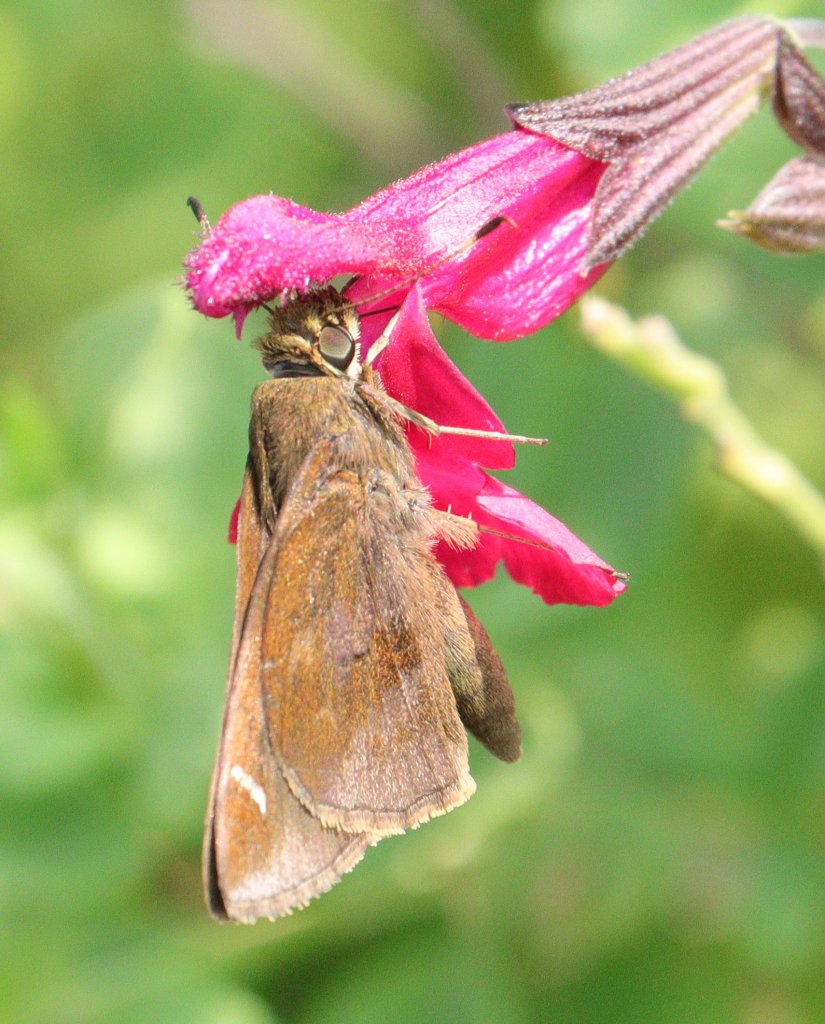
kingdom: Animalia
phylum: Arthropoda
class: Insecta
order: Lepidoptera
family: Hesperiidae
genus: Lon
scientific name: Lon zabulon
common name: Zabulon Skipper
